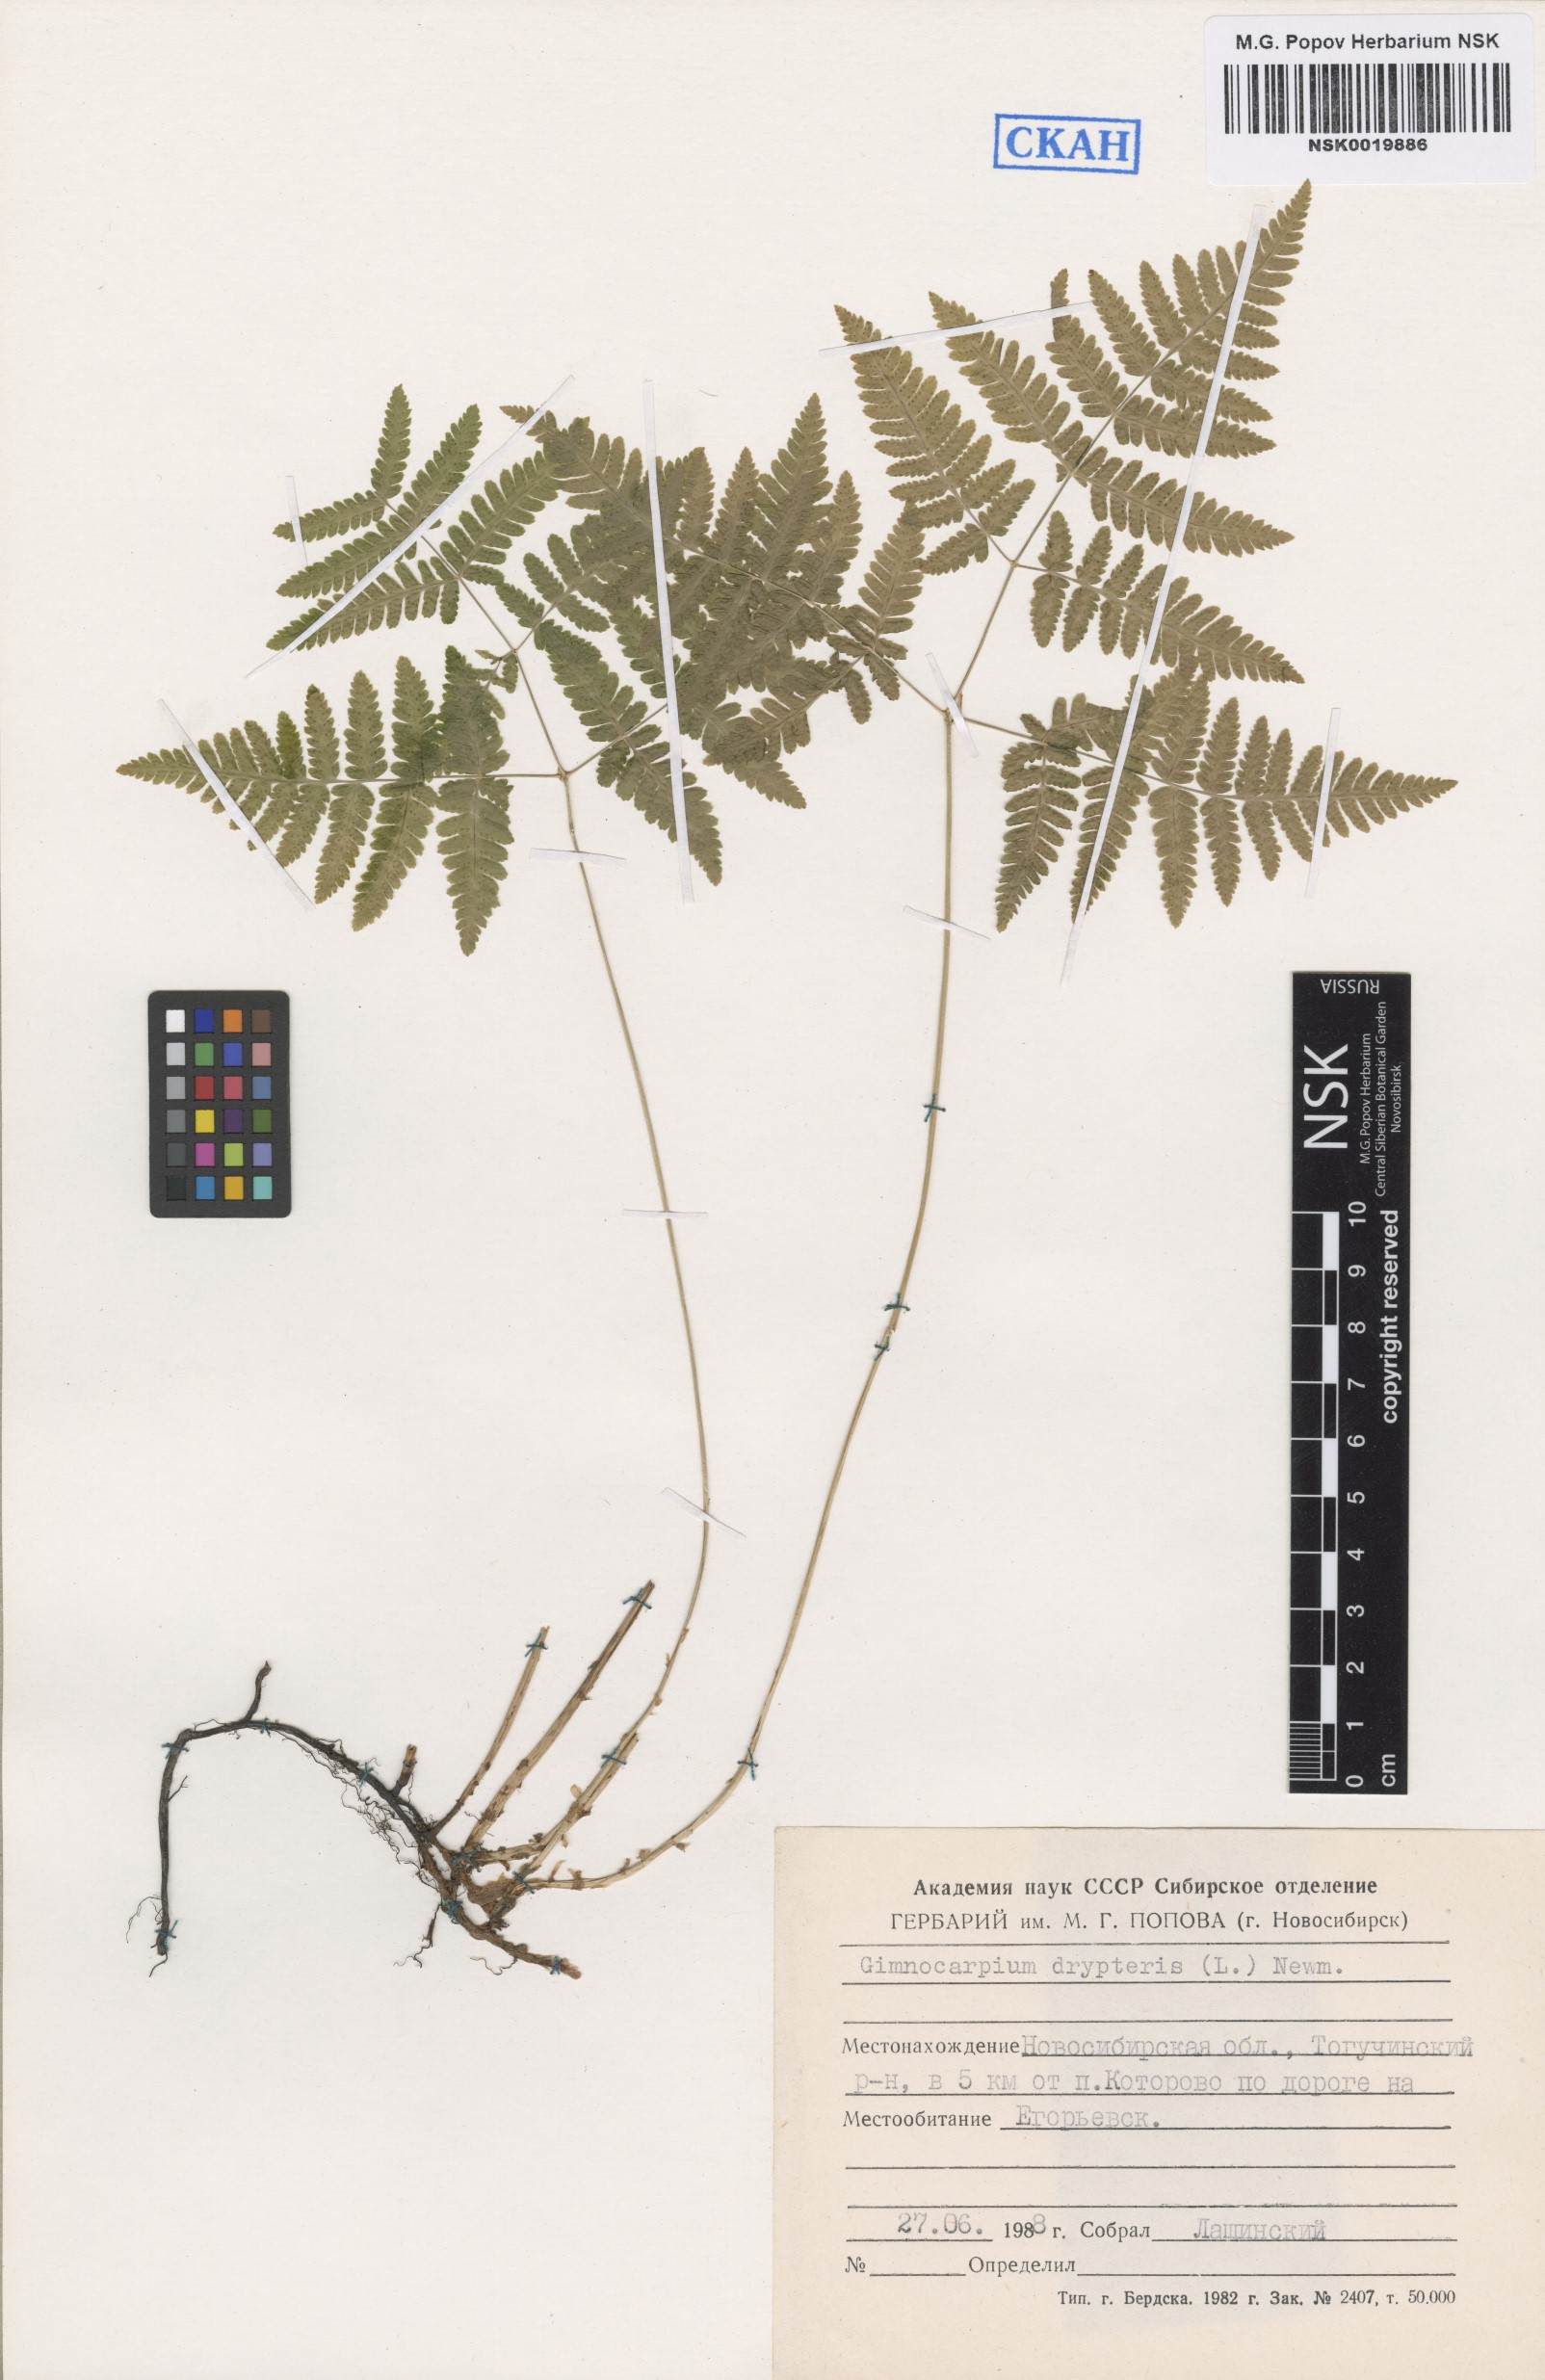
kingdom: Plantae
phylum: Tracheophyta
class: Polypodiopsida
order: Polypodiales
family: Cystopteridaceae
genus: Gymnocarpium
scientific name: Gymnocarpium dryopteris
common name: Oak fern
